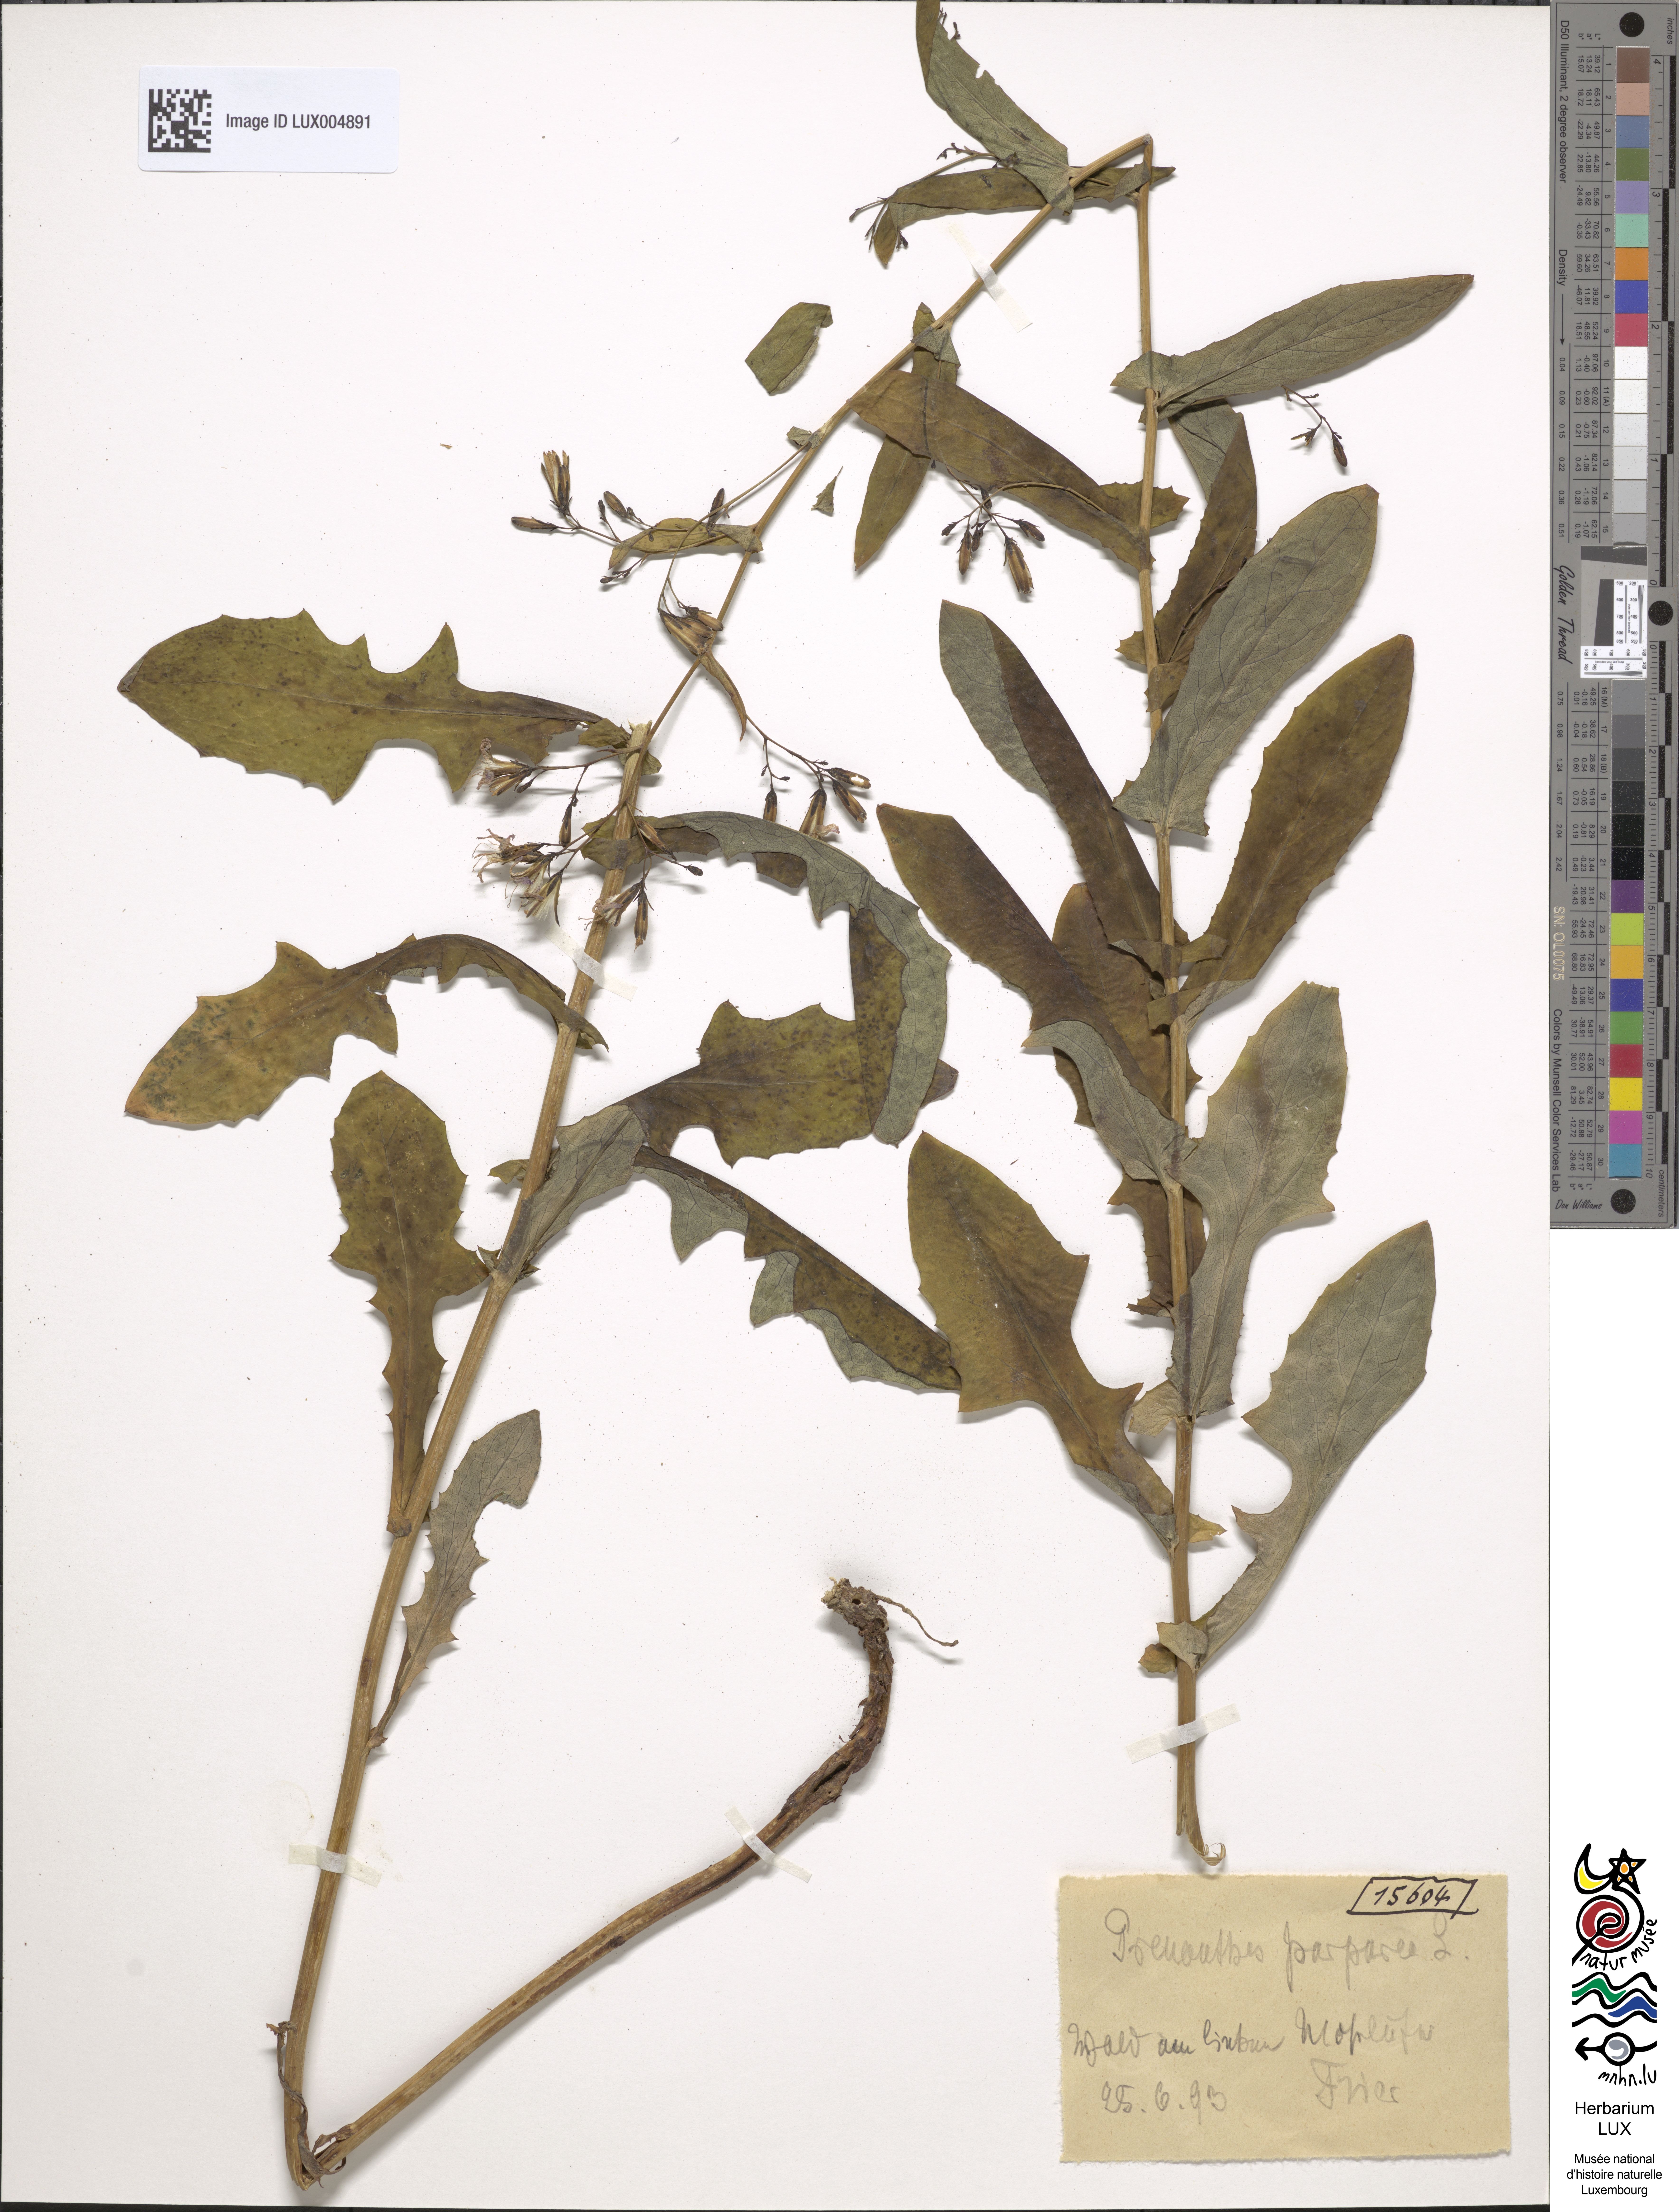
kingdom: Plantae
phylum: Tracheophyta
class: Magnoliopsida
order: Asterales
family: Asteraceae
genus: Prenanthes
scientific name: Prenanthes purpurea
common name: Purple lettuce
